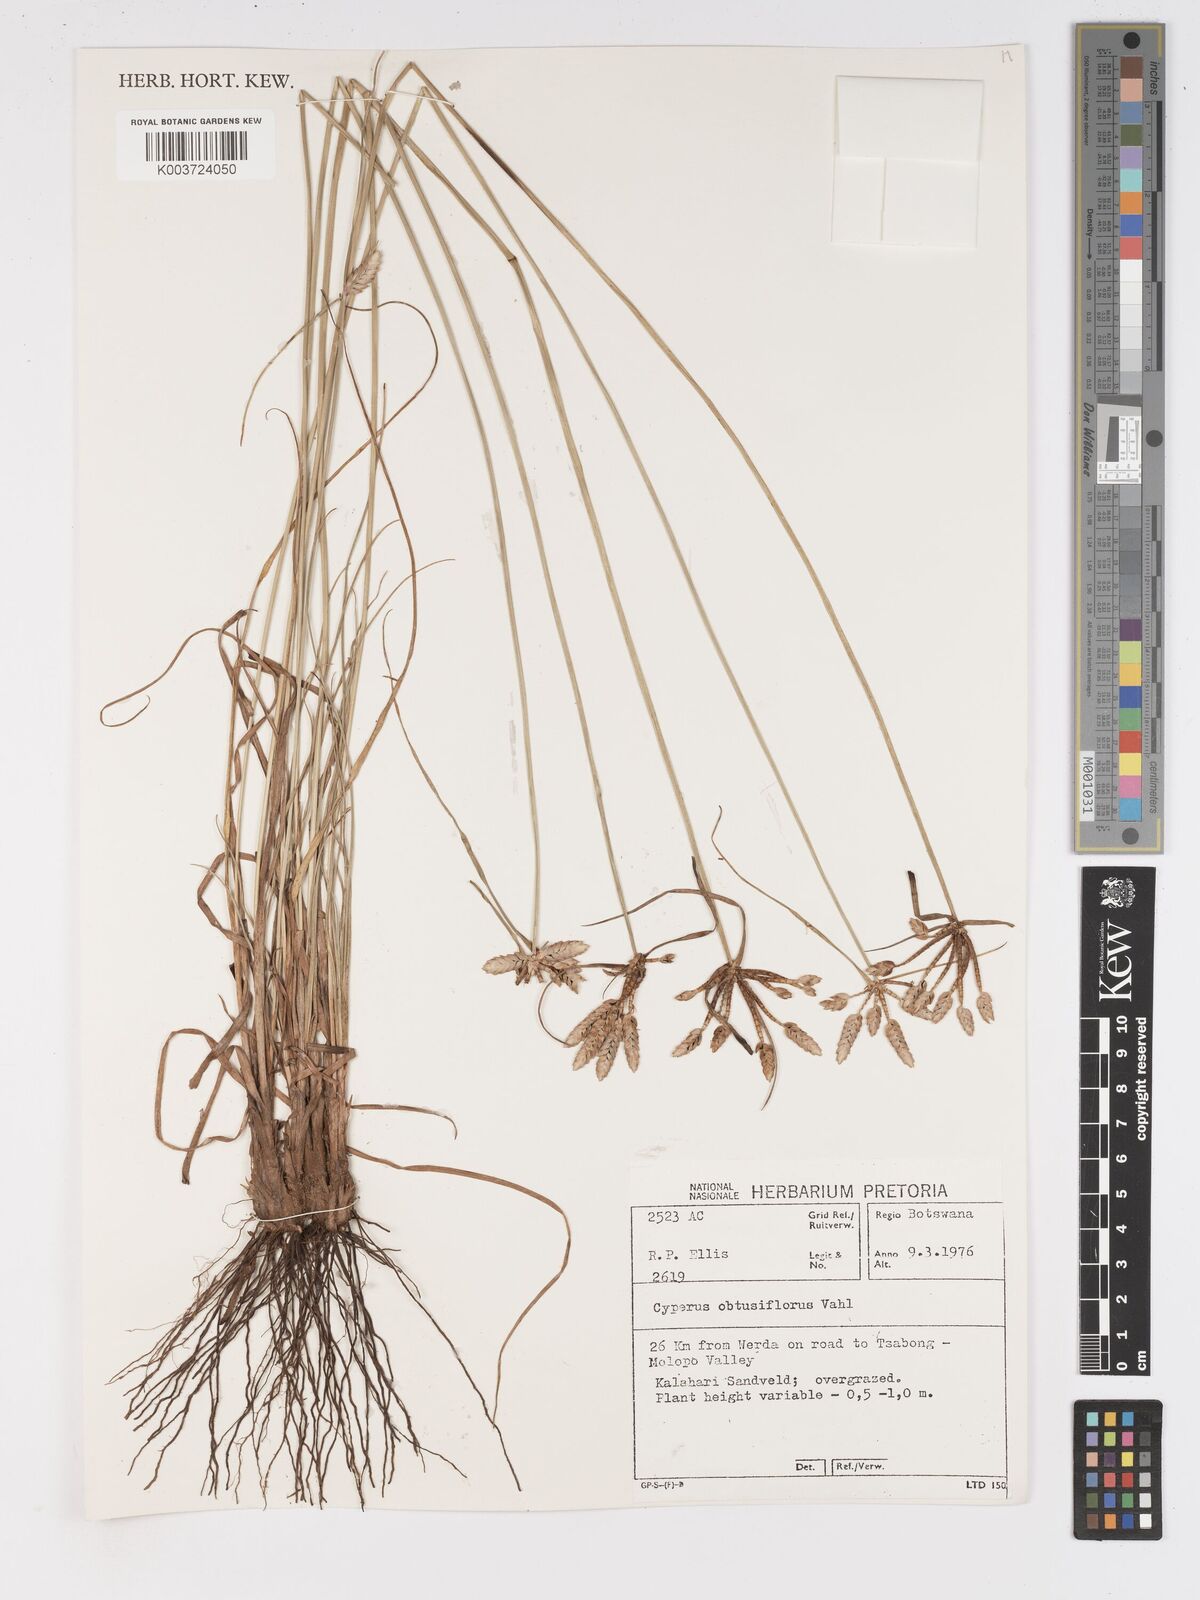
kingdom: Plantae
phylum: Tracheophyta
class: Liliopsida
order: Poales
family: Cyperaceae
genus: Cyperus
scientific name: Cyperus niveus
